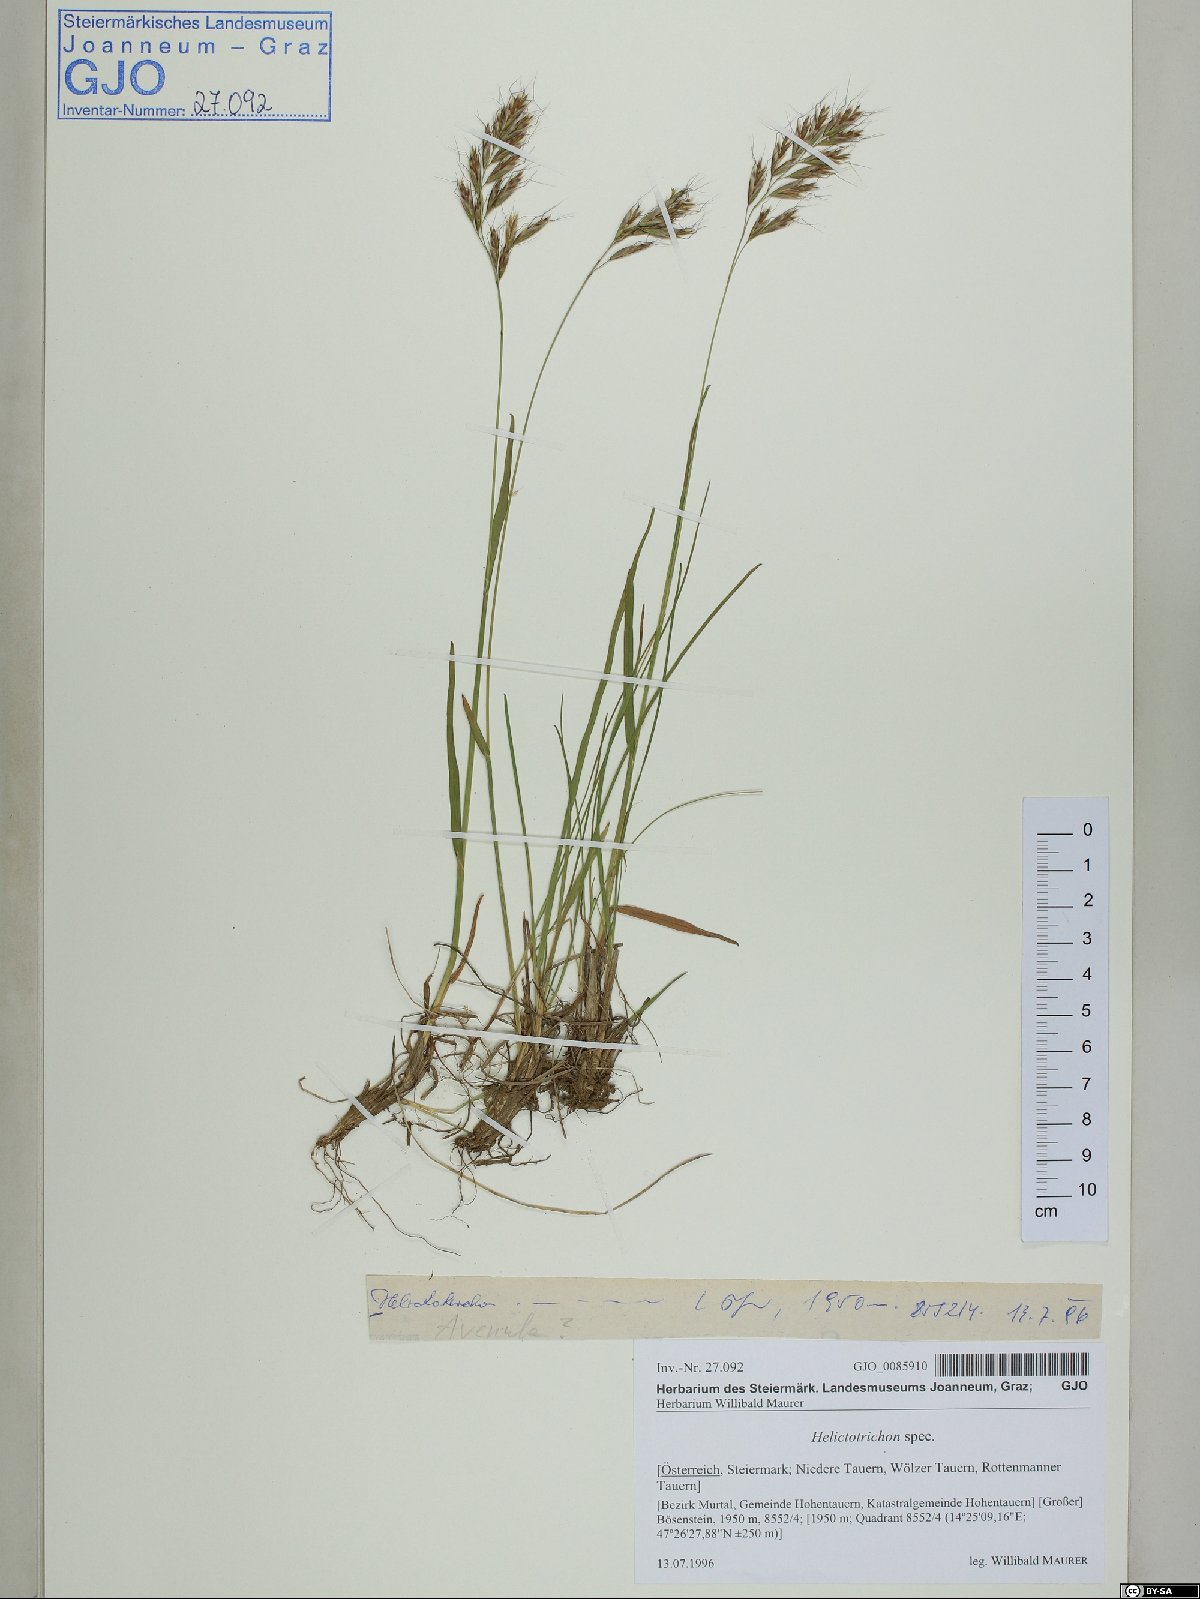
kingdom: Plantae
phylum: Tracheophyta
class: Liliopsida
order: Poales
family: Poaceae
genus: Helictotrichon
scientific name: Helictotrichon
